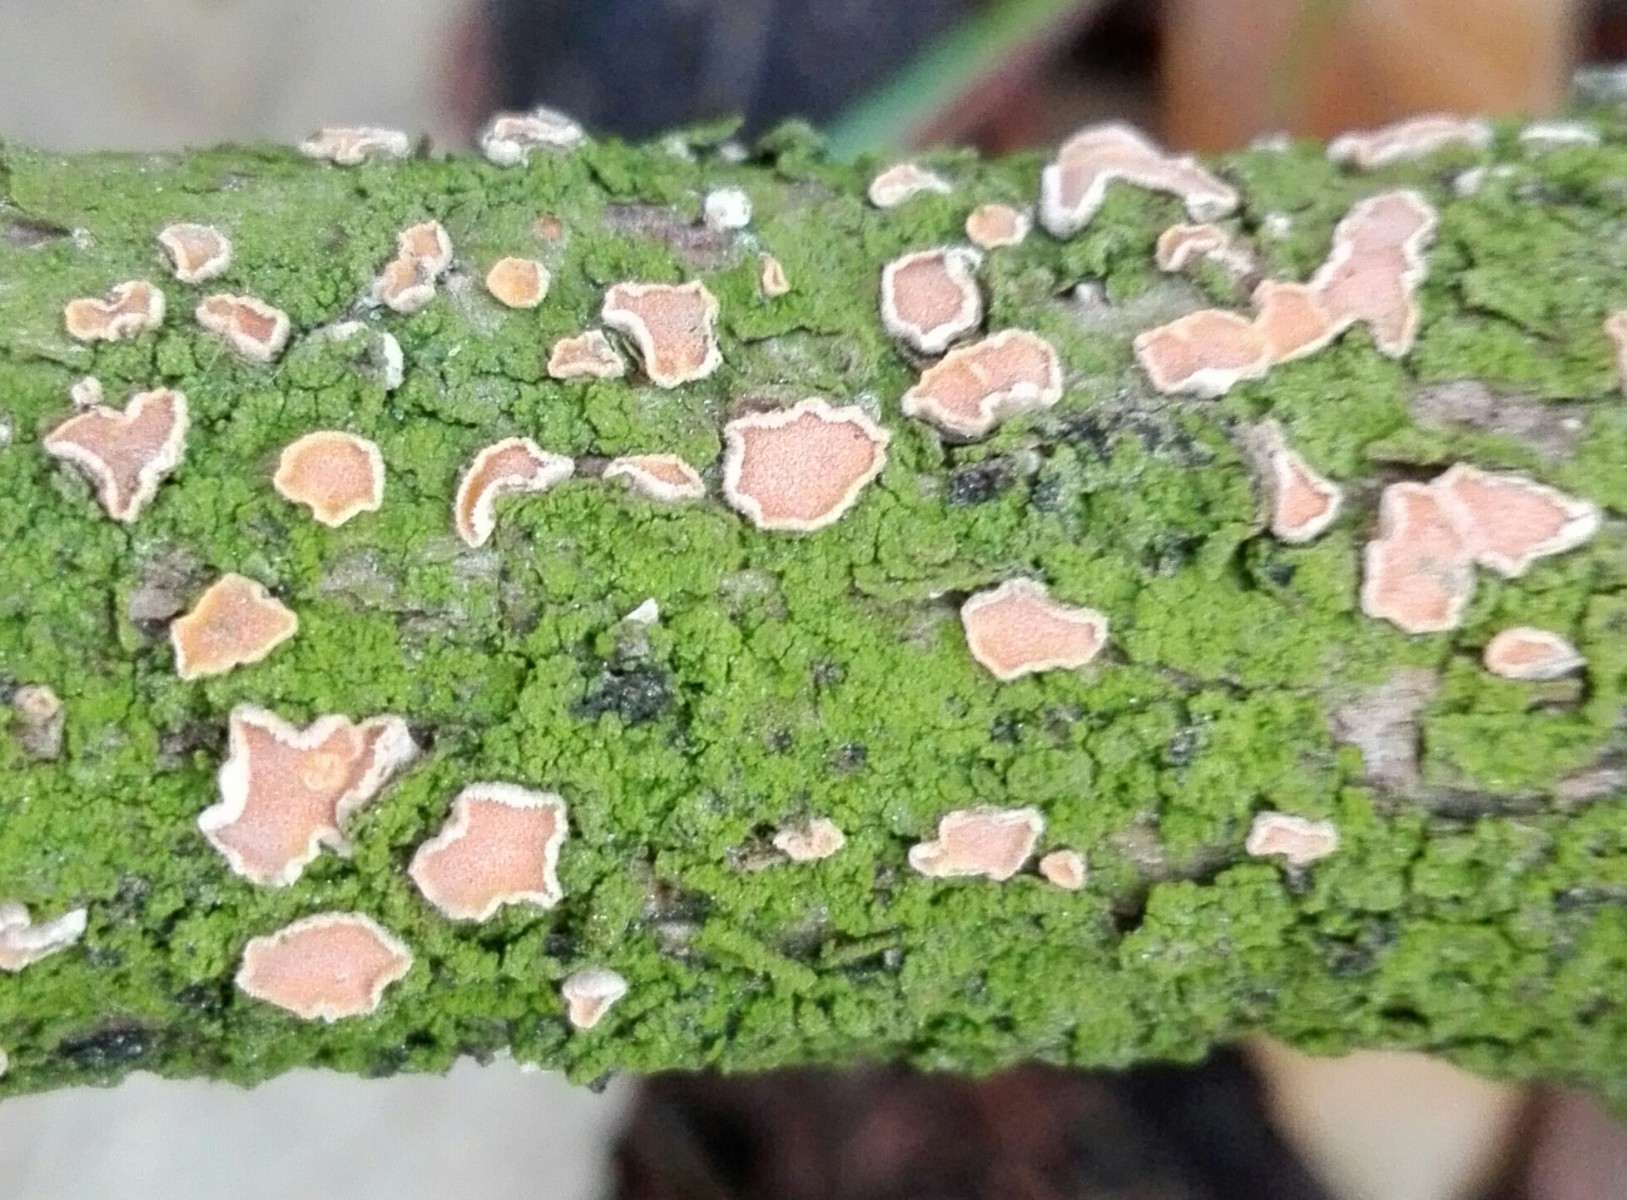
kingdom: Fungi
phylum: Basidiomycota
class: Agaricomycetes
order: Russulales
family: Stereaceae
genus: Aleurodiscus
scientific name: Aleurodiscus amorphus
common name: orange skiveskorpe
